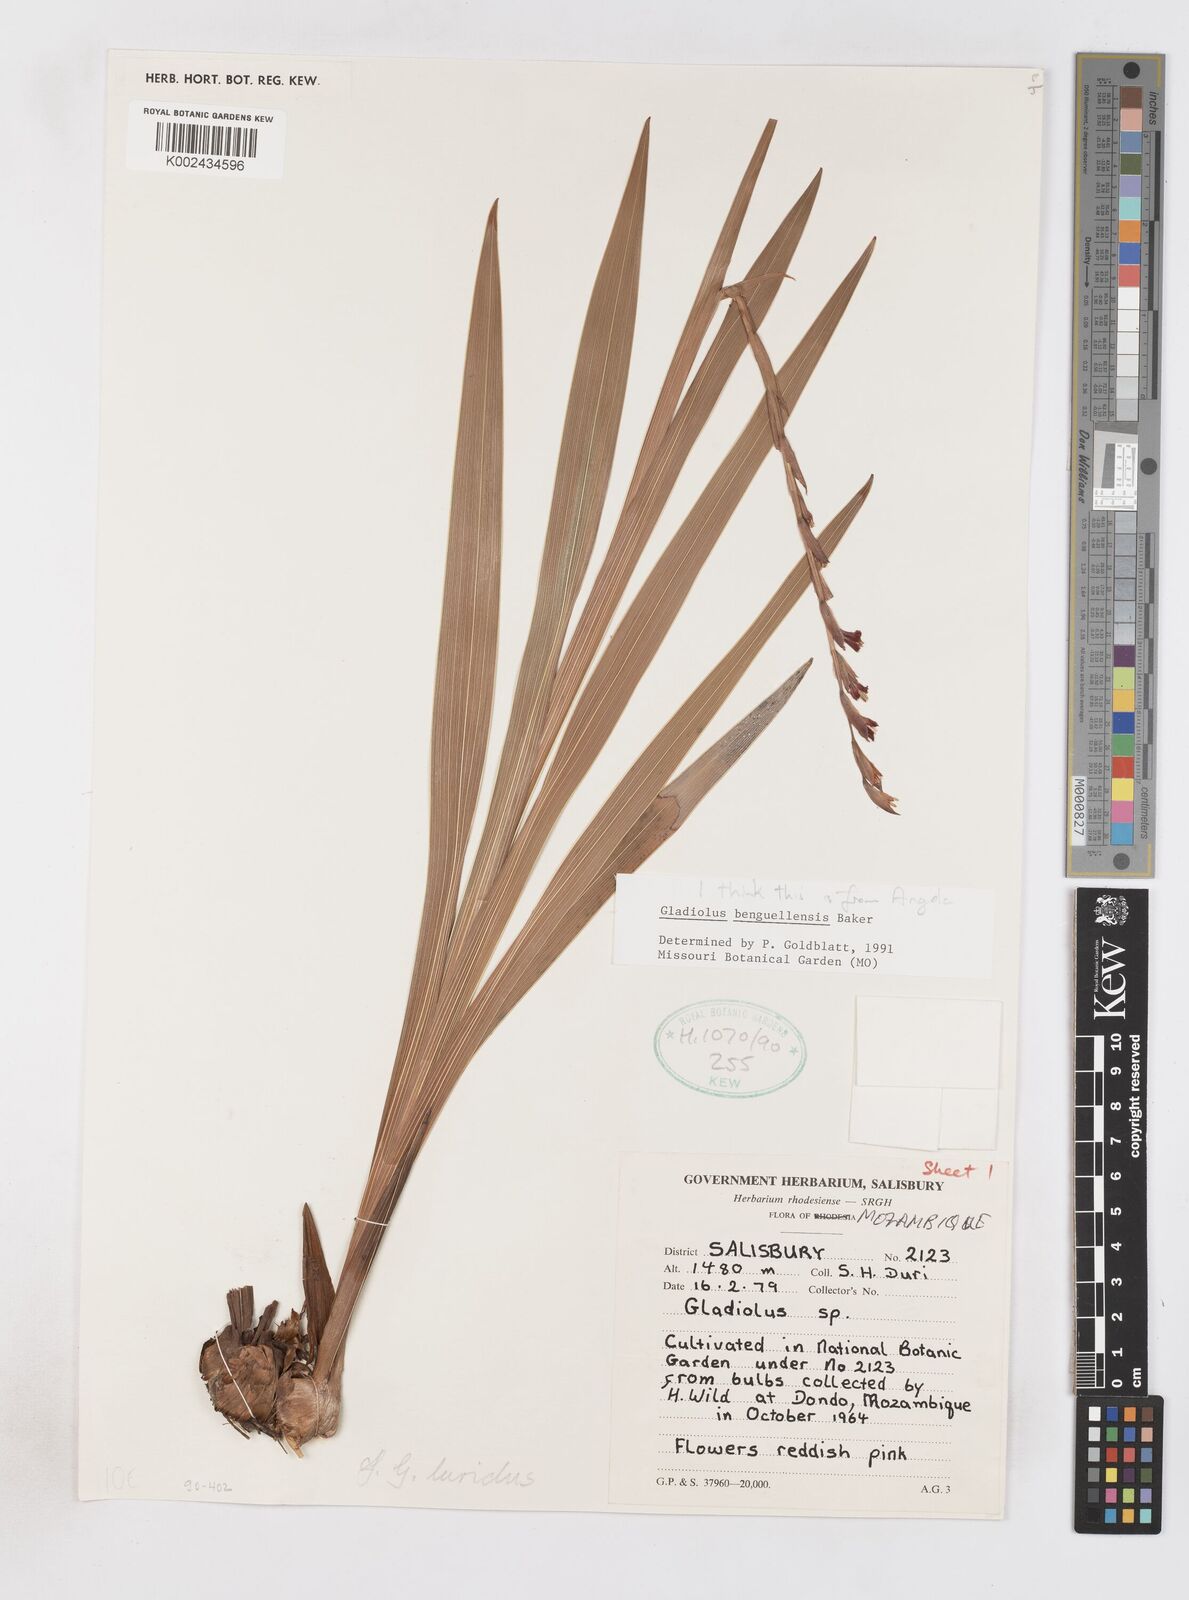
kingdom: Plantae
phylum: Tracheophyta
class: Liliopsida
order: Asparagales
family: Iridaceae
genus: Gladiolus
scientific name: Gladiolus benguellensis
